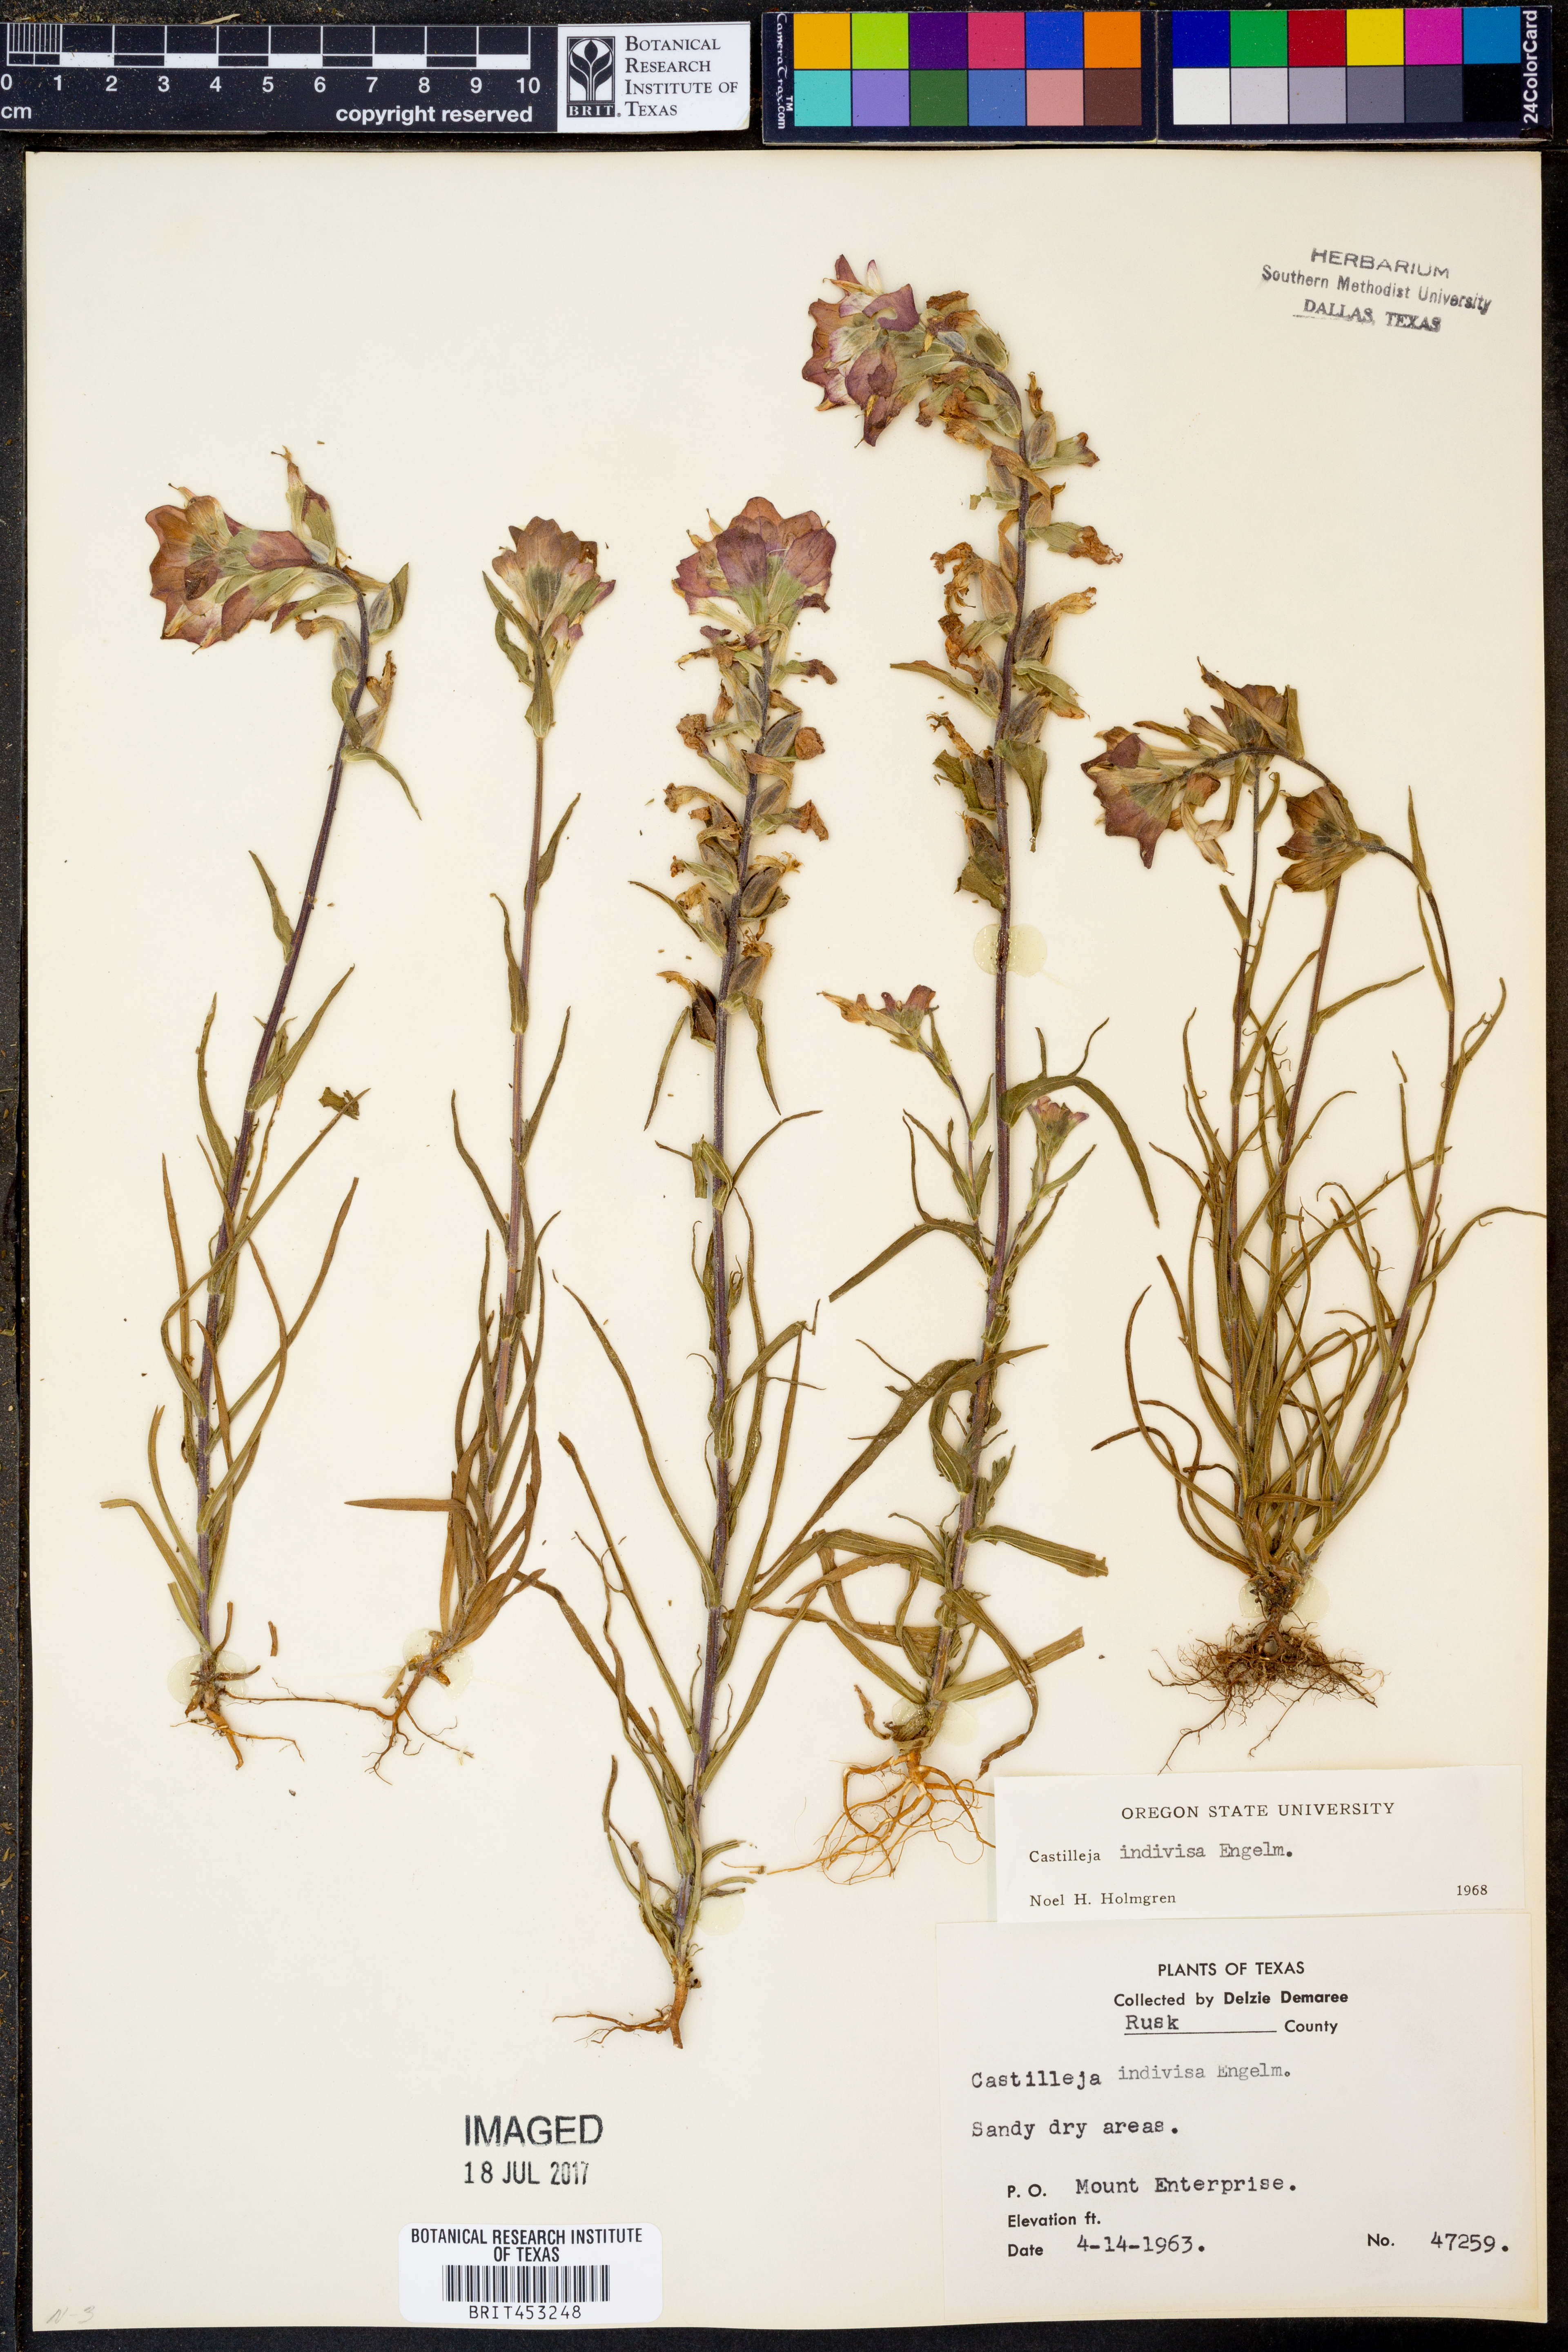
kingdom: Plantae
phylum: Tracheophyta
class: Magnoliopsida
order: Lamiales
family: Orobanchaceae
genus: Castilleja
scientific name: Castilleja indivisa
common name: Texas paintbrush
